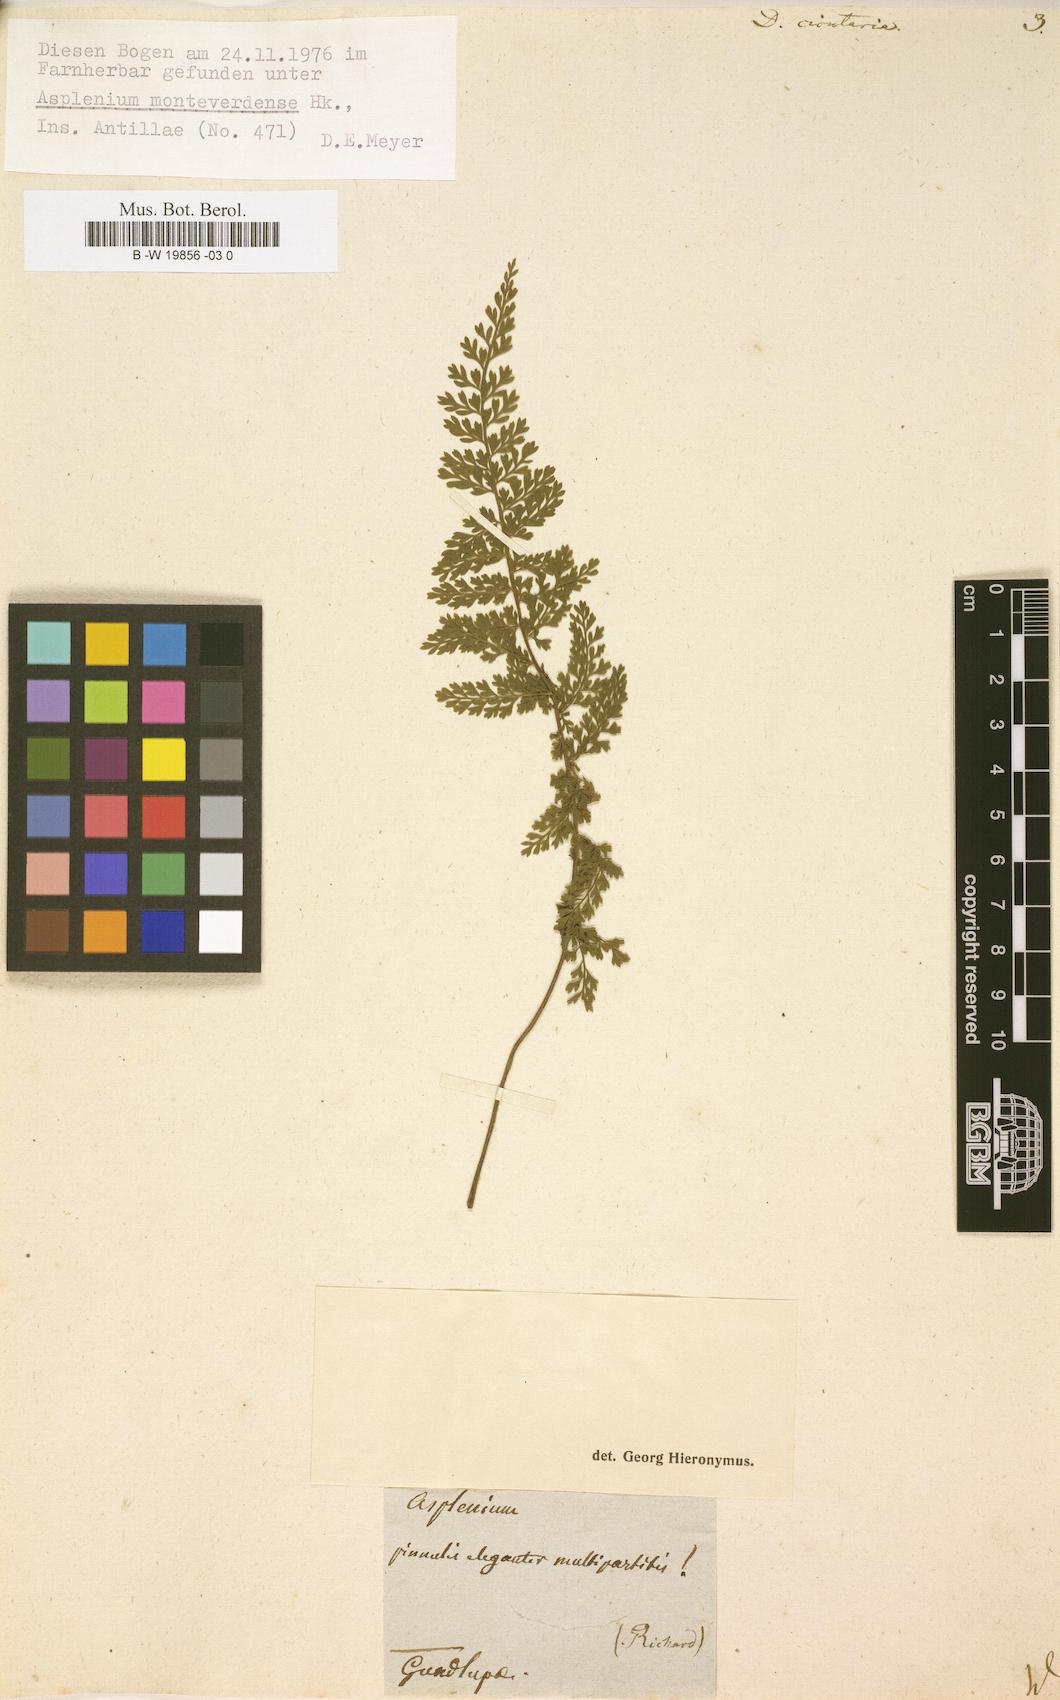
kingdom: Plantae
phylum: Tracheophyta
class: Polypodiopsida
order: Polypodiales
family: Aspleniaceae
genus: Asplenium
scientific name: Asplenium cristatum
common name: Parsley spleenwort
